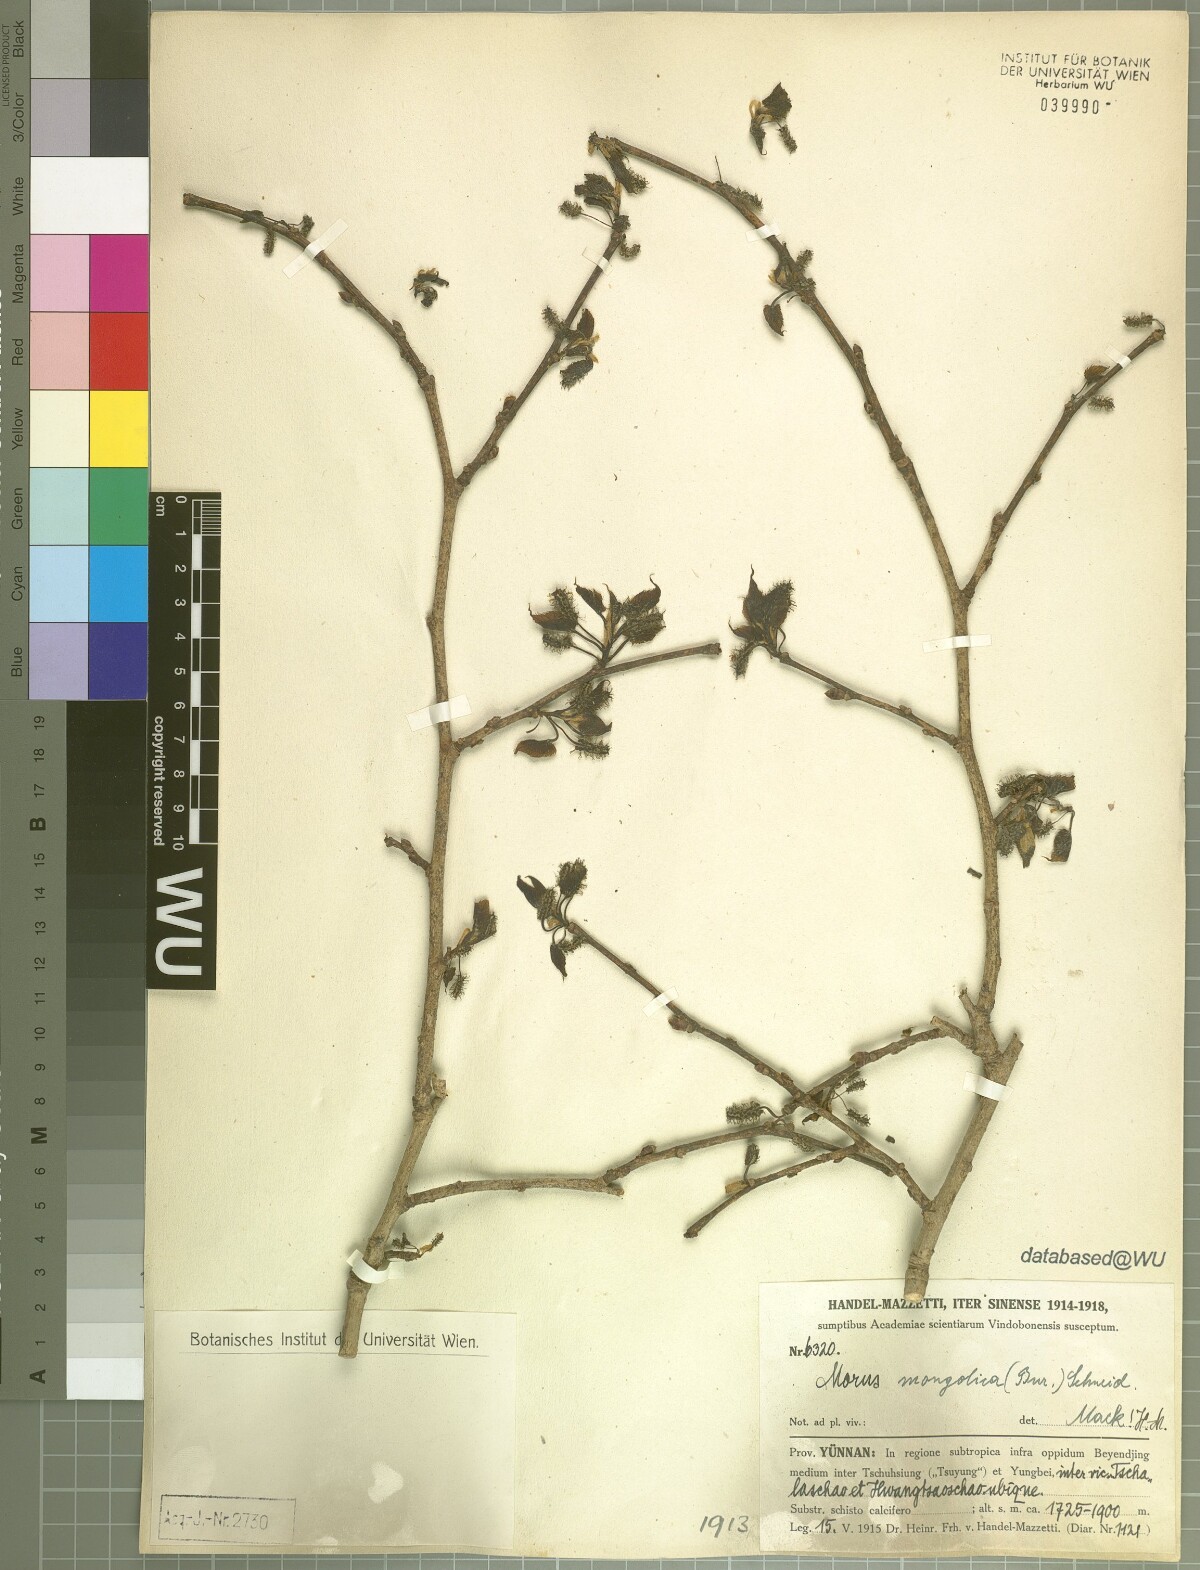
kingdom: Plantae
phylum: Tracheophyta
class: Magnoliopsida
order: Rosales
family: Moraceae
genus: Morus
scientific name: Morus mongolica
